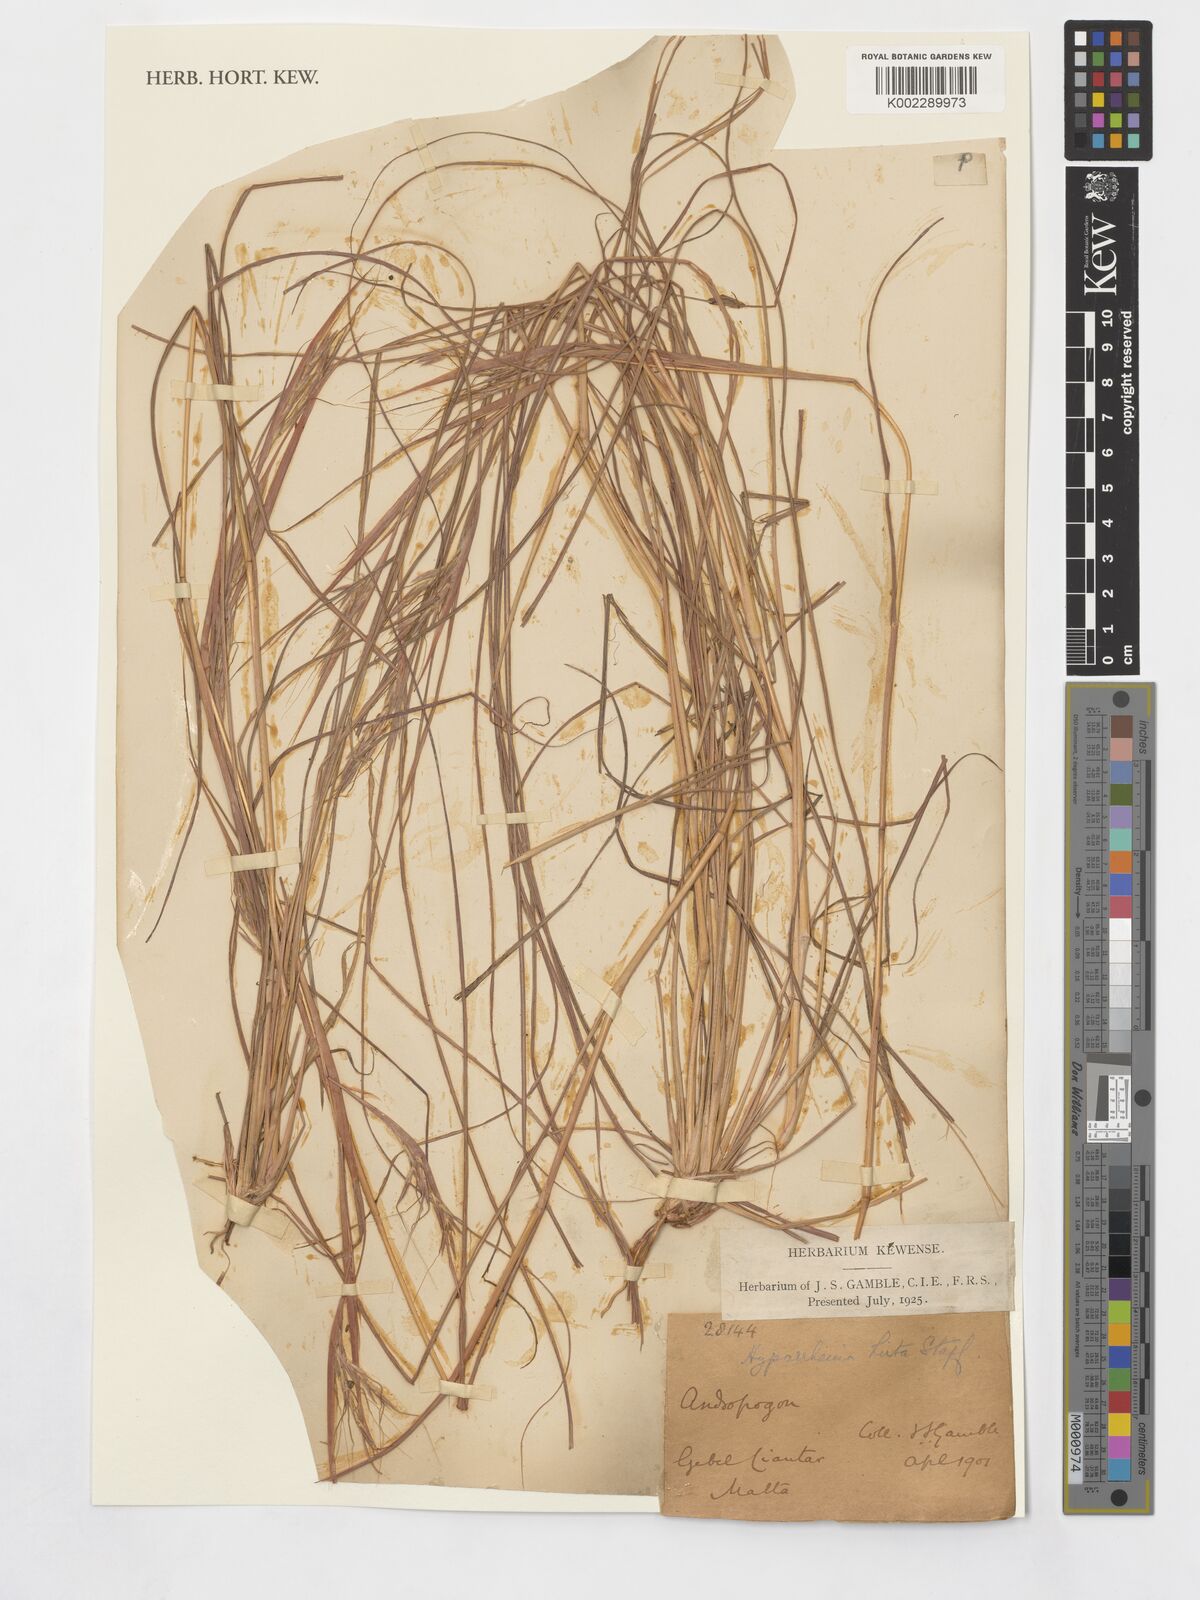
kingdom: Plantae
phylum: Tracheophyta
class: Liliopsida
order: Poales
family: Poaceae
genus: Hyparrhenia
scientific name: Hyparrhenia hirta
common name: Thatching grass
